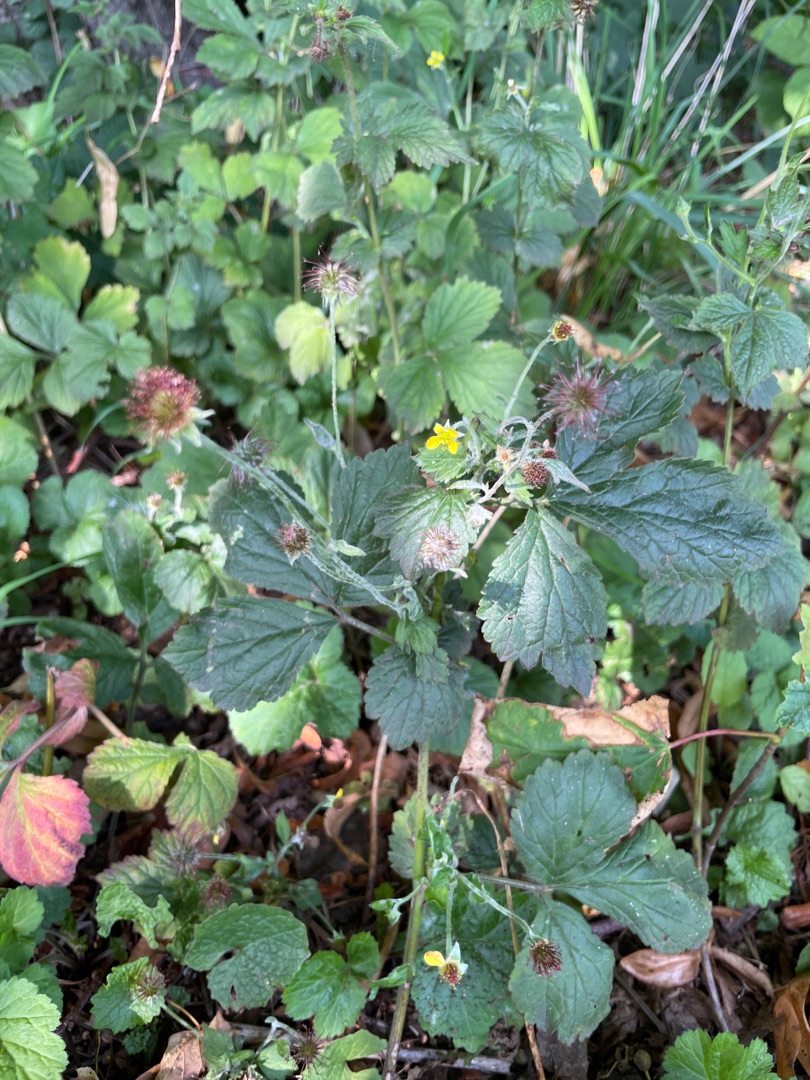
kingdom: Plantae
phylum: Tracheophyta
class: Magnoliopsida
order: Rosales
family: Rosaceae
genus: Geum
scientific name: Geum urbanum
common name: Feber-nellikerod
